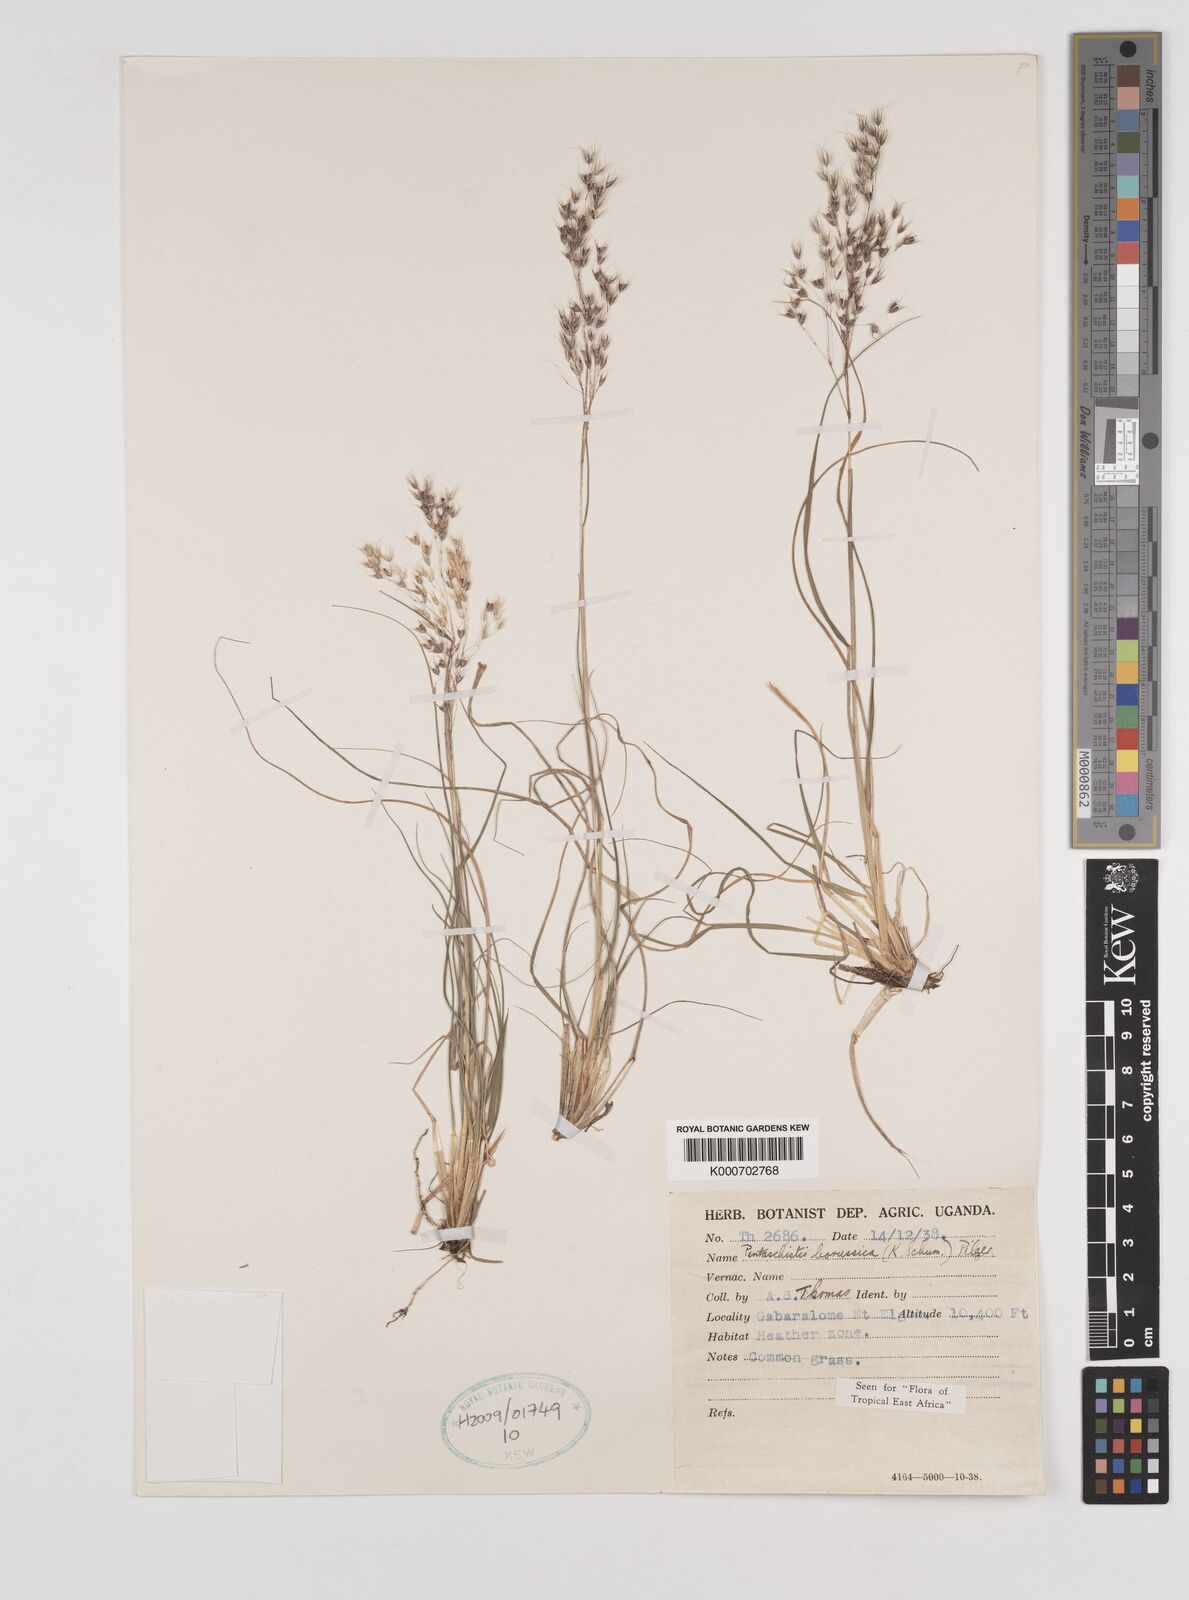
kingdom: Plantae
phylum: Tracheophyta
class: Liliopsida
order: Poales
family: Poaceae
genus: Pentameris
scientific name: Pentameris borussica
